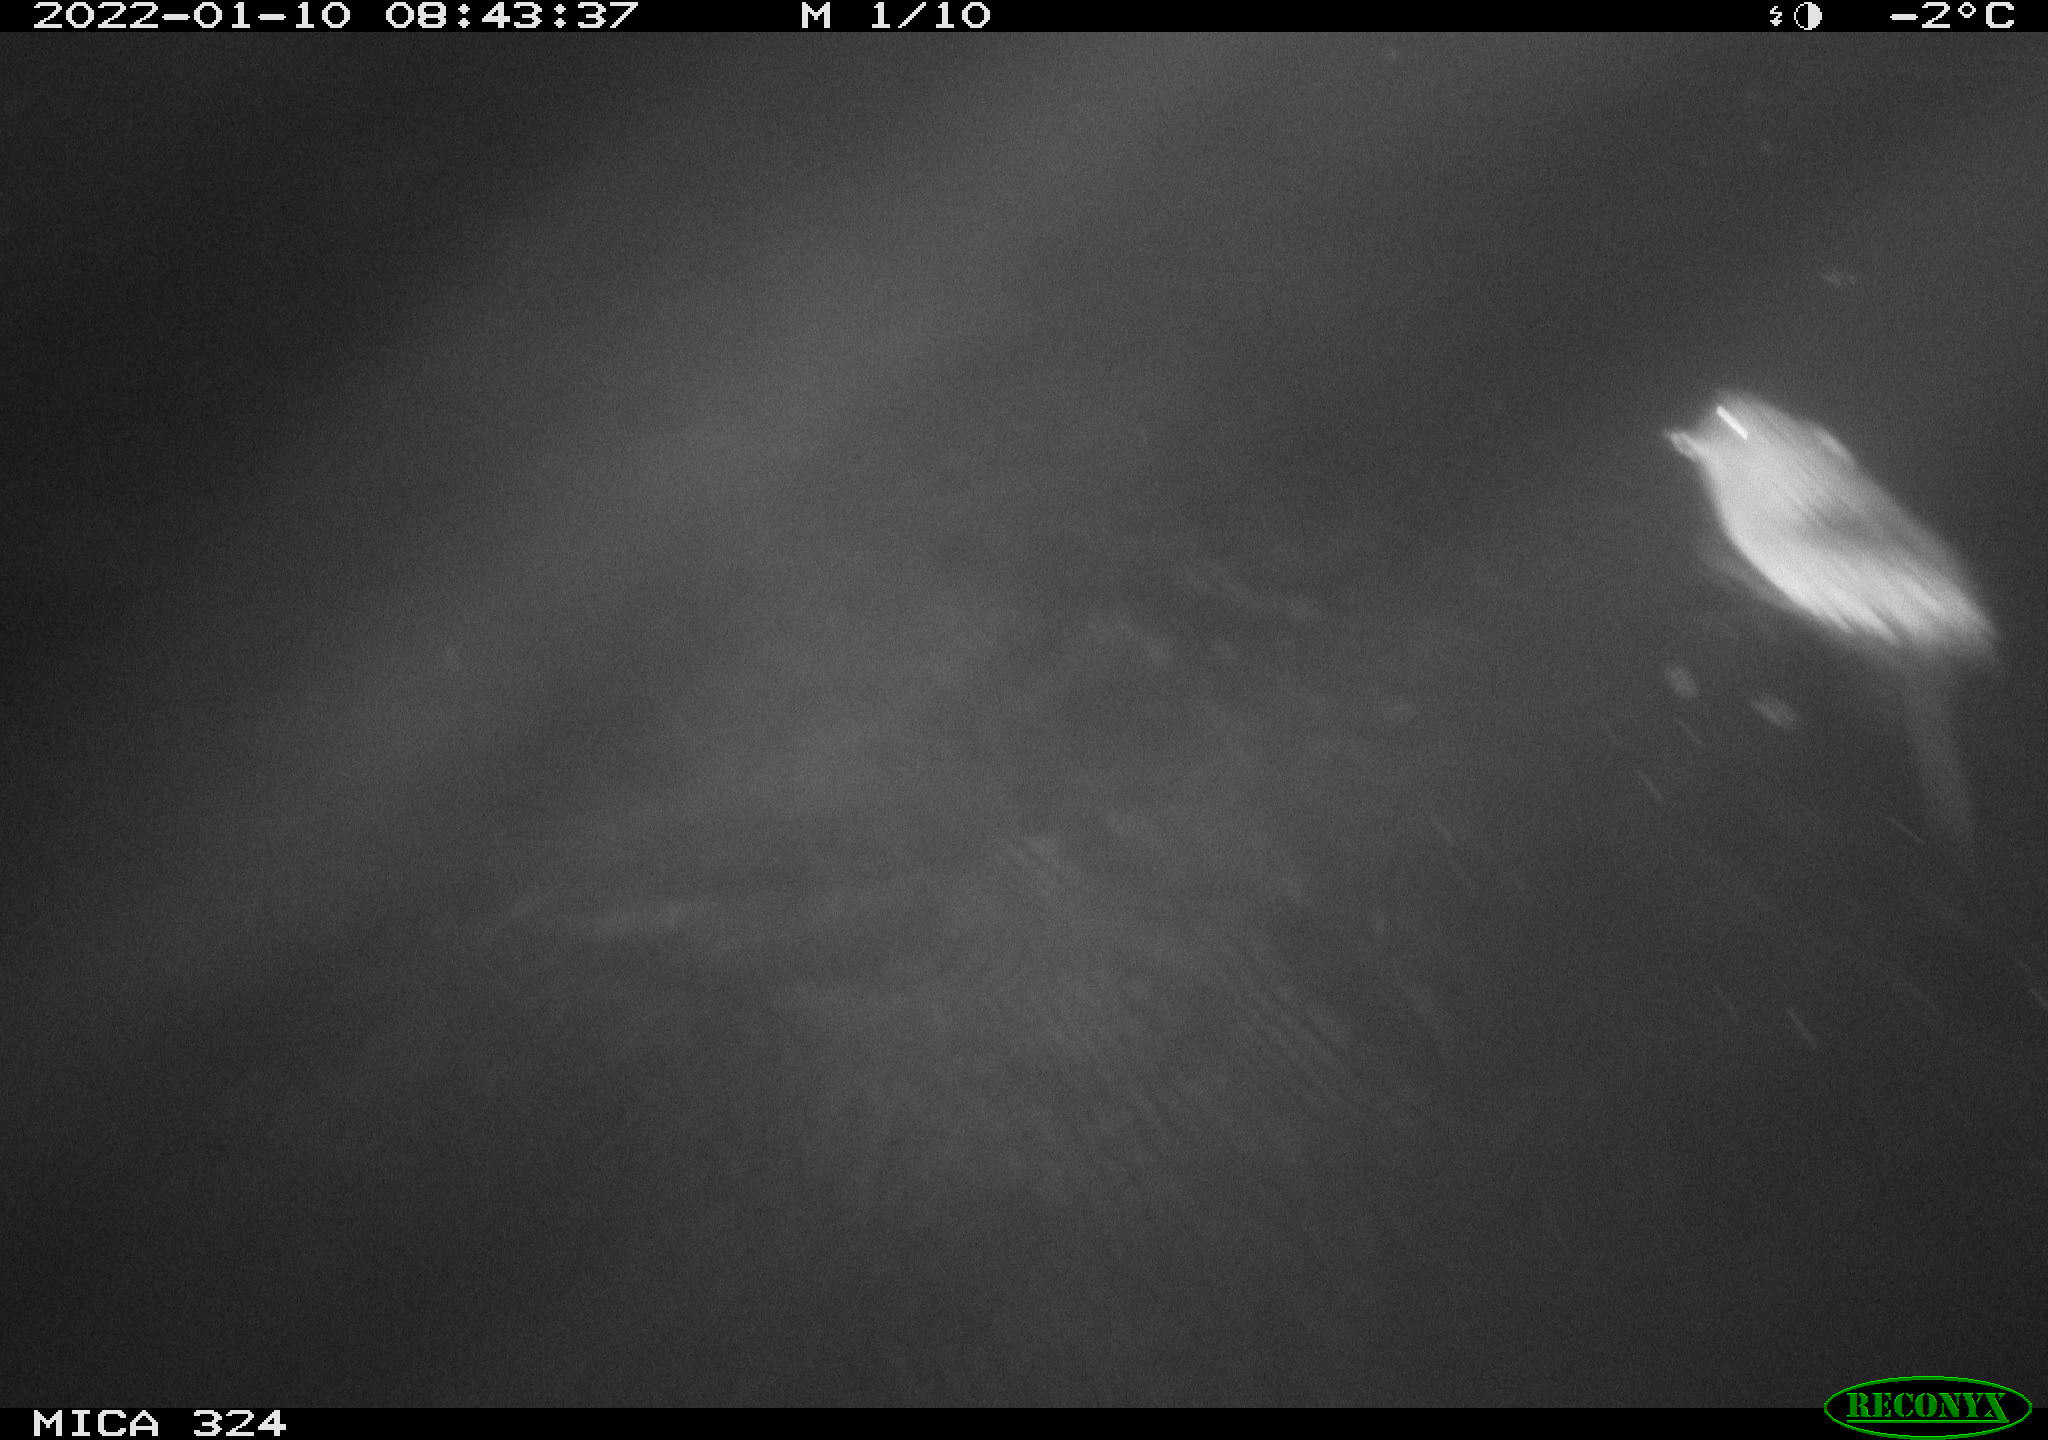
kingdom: Animalia
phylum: Chordata
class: Mammalia
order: Rodentia
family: Cricetidae
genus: Ondatra
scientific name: Ondatra zibethicus
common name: Muskrat
